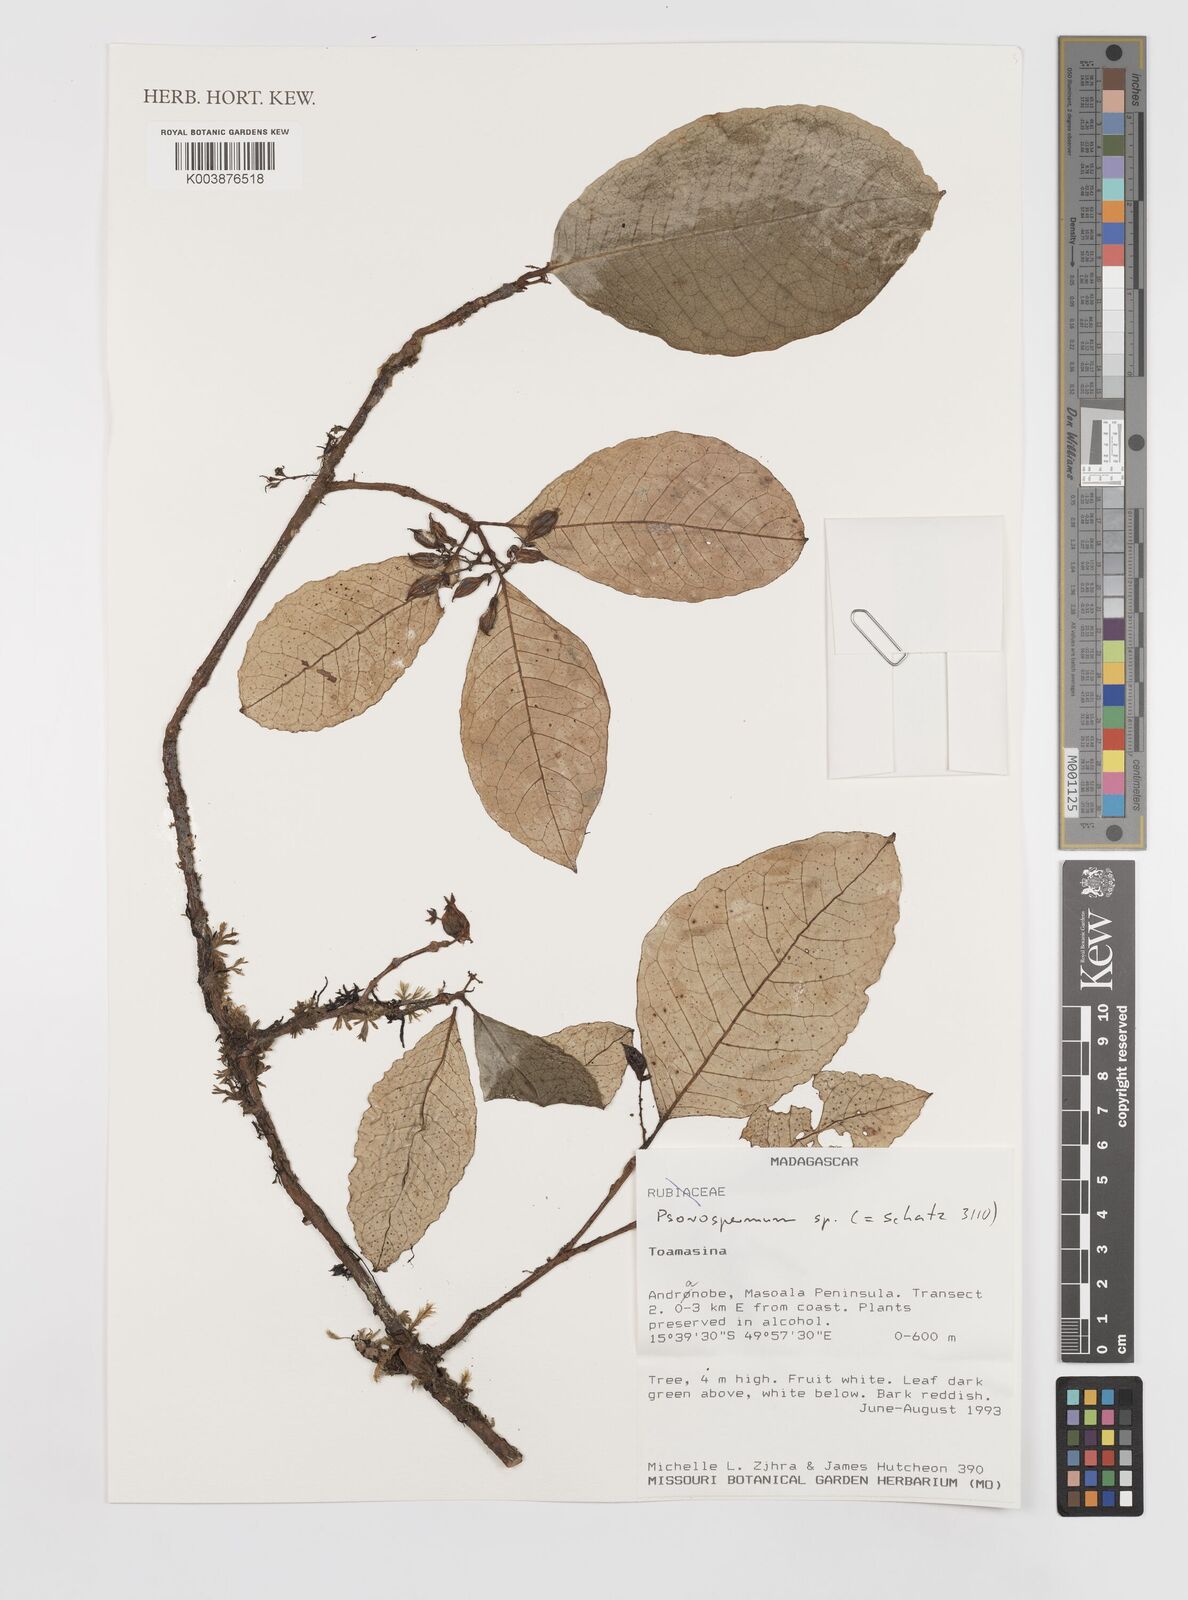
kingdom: Plantae
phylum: Tracheophyta
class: Magnoliopsida
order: Malpighiales
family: Hypericaceae
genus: Psorospermum
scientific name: Psorospermum
